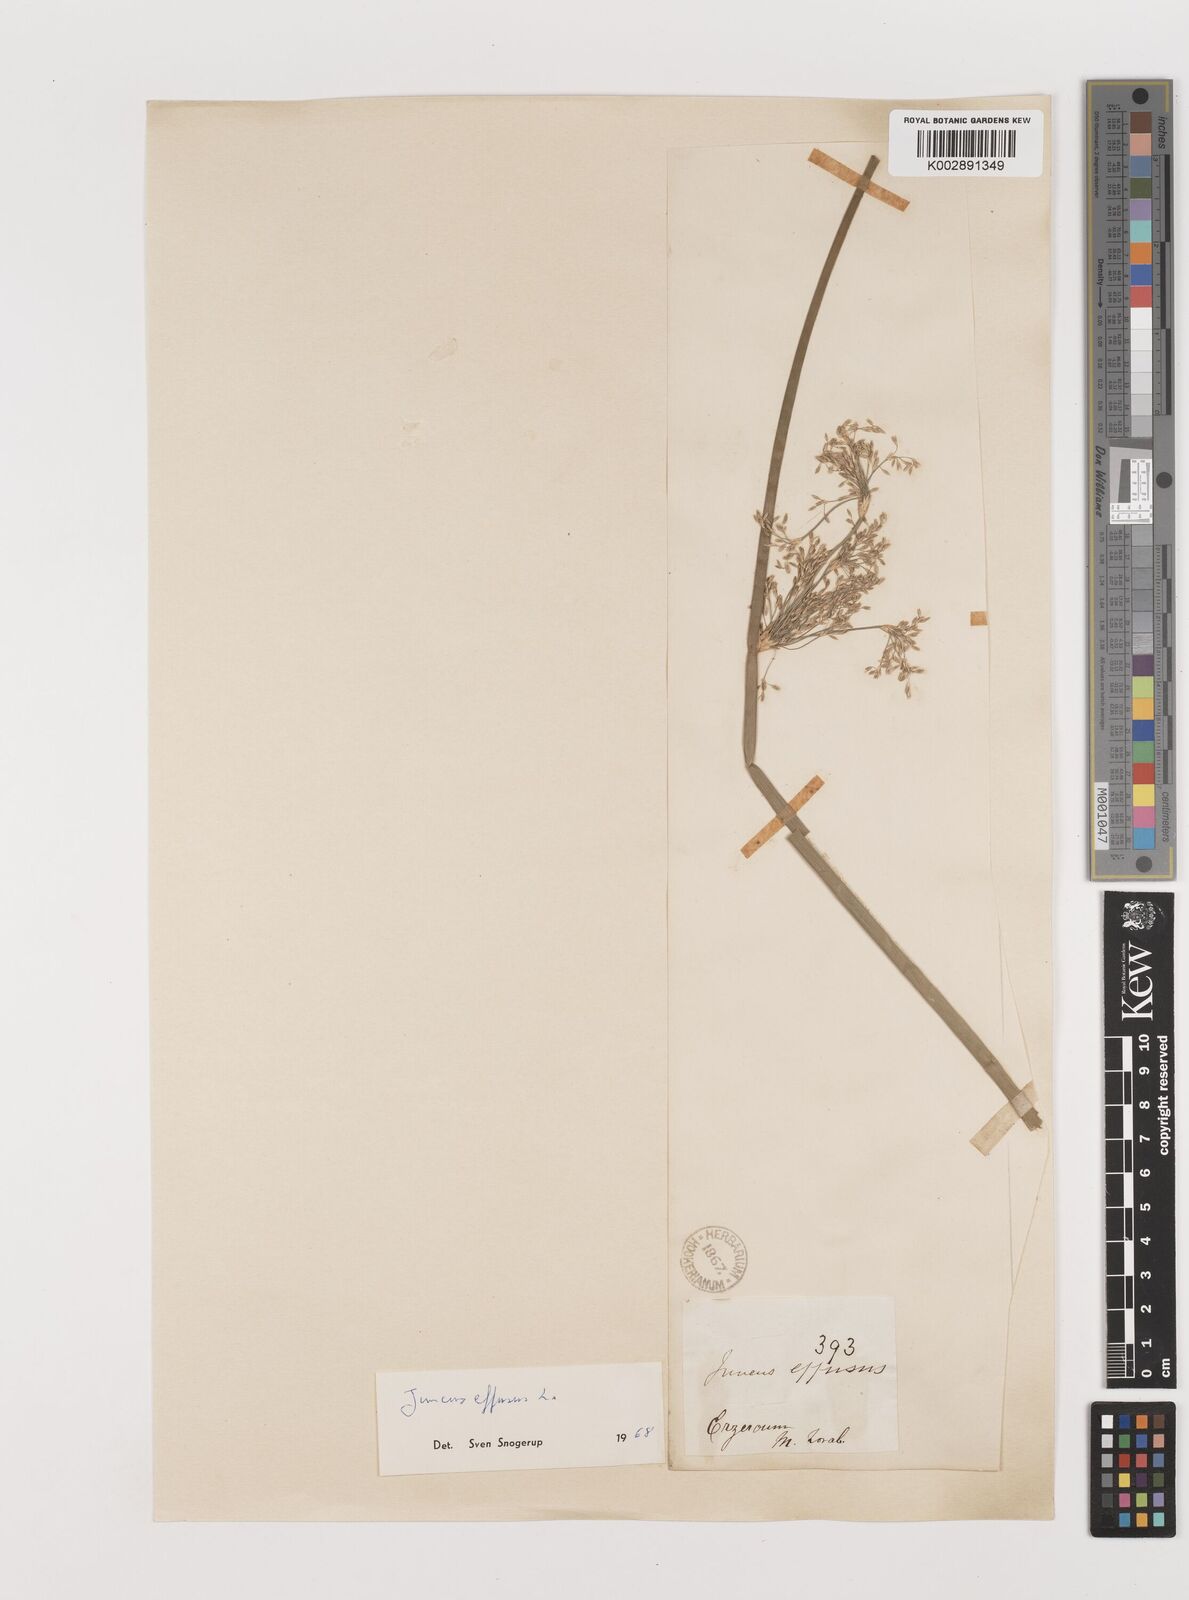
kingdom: Plantae
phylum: Tracheophyta
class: Liliopsida
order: Poales
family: Juncaceae
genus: Juncus
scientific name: Juncus effusus
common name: Soft rush
